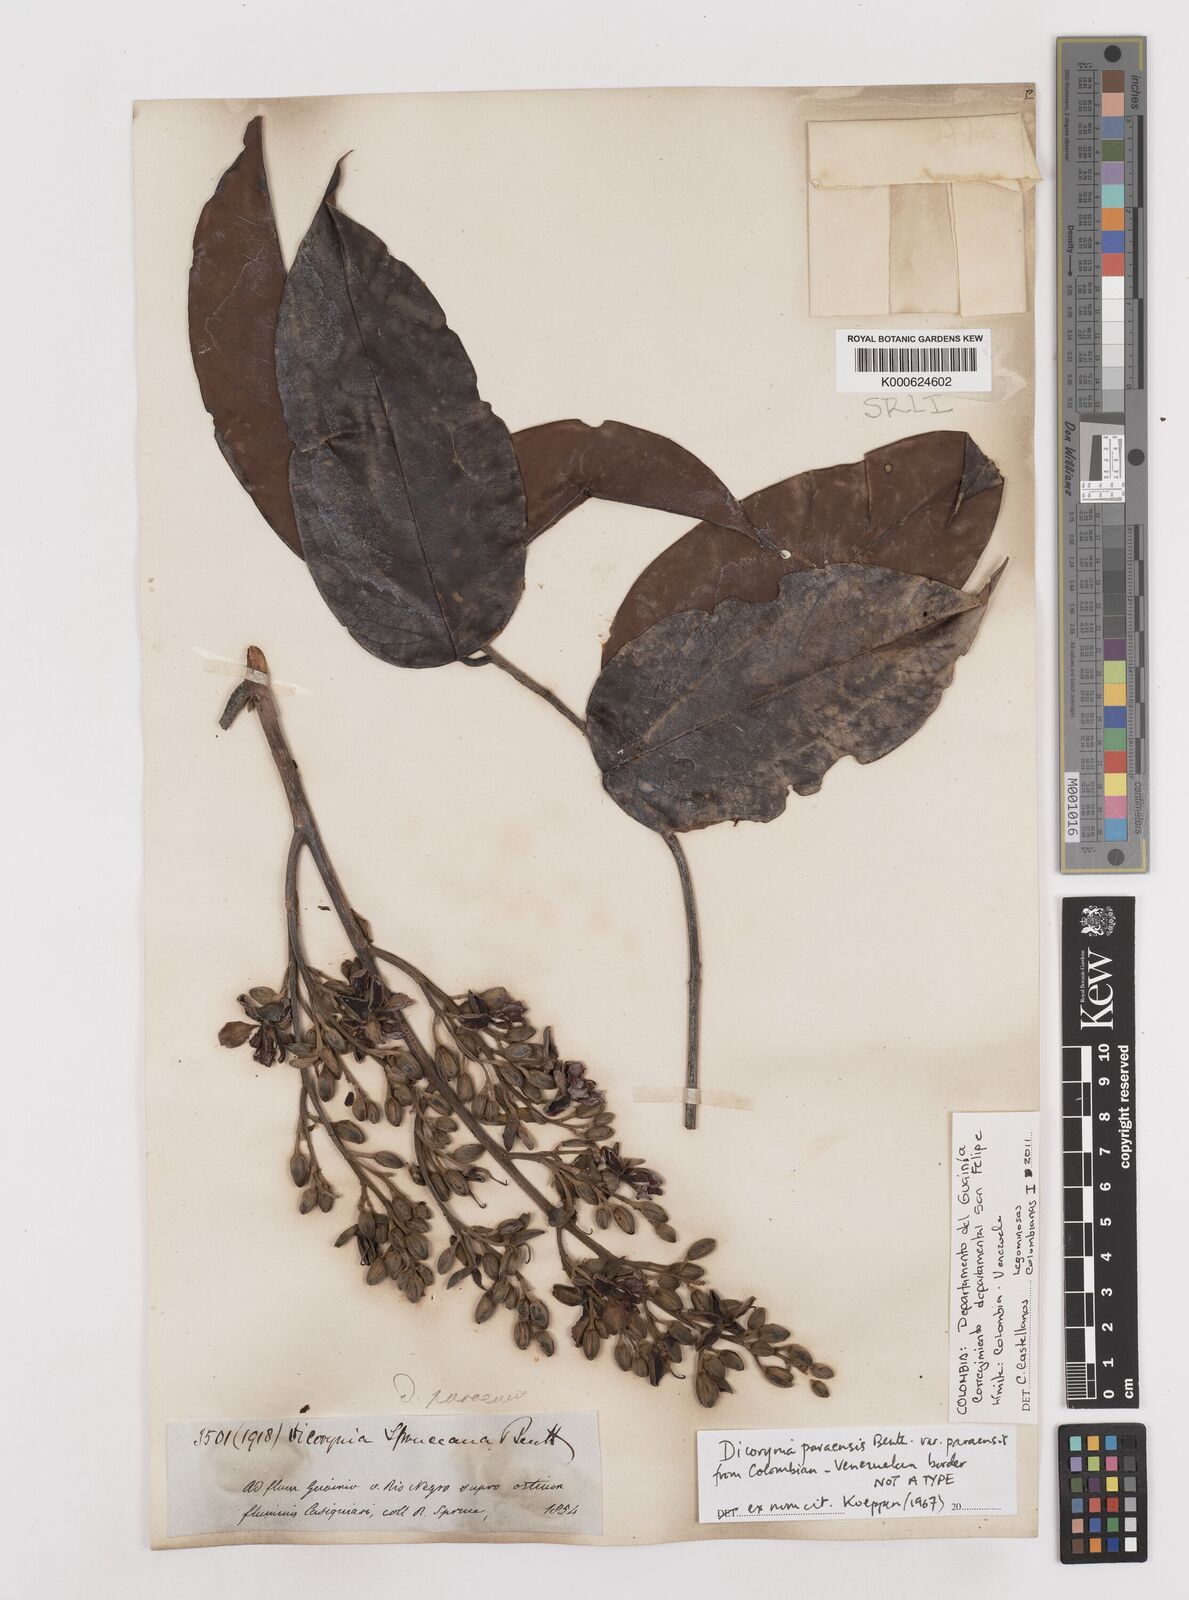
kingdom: Plantae
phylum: Tracheophyta
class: Magnoliopsida
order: Fabales
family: Fabaceae
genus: Dicorynia
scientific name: Dicorynia paraensis
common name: Angelique
